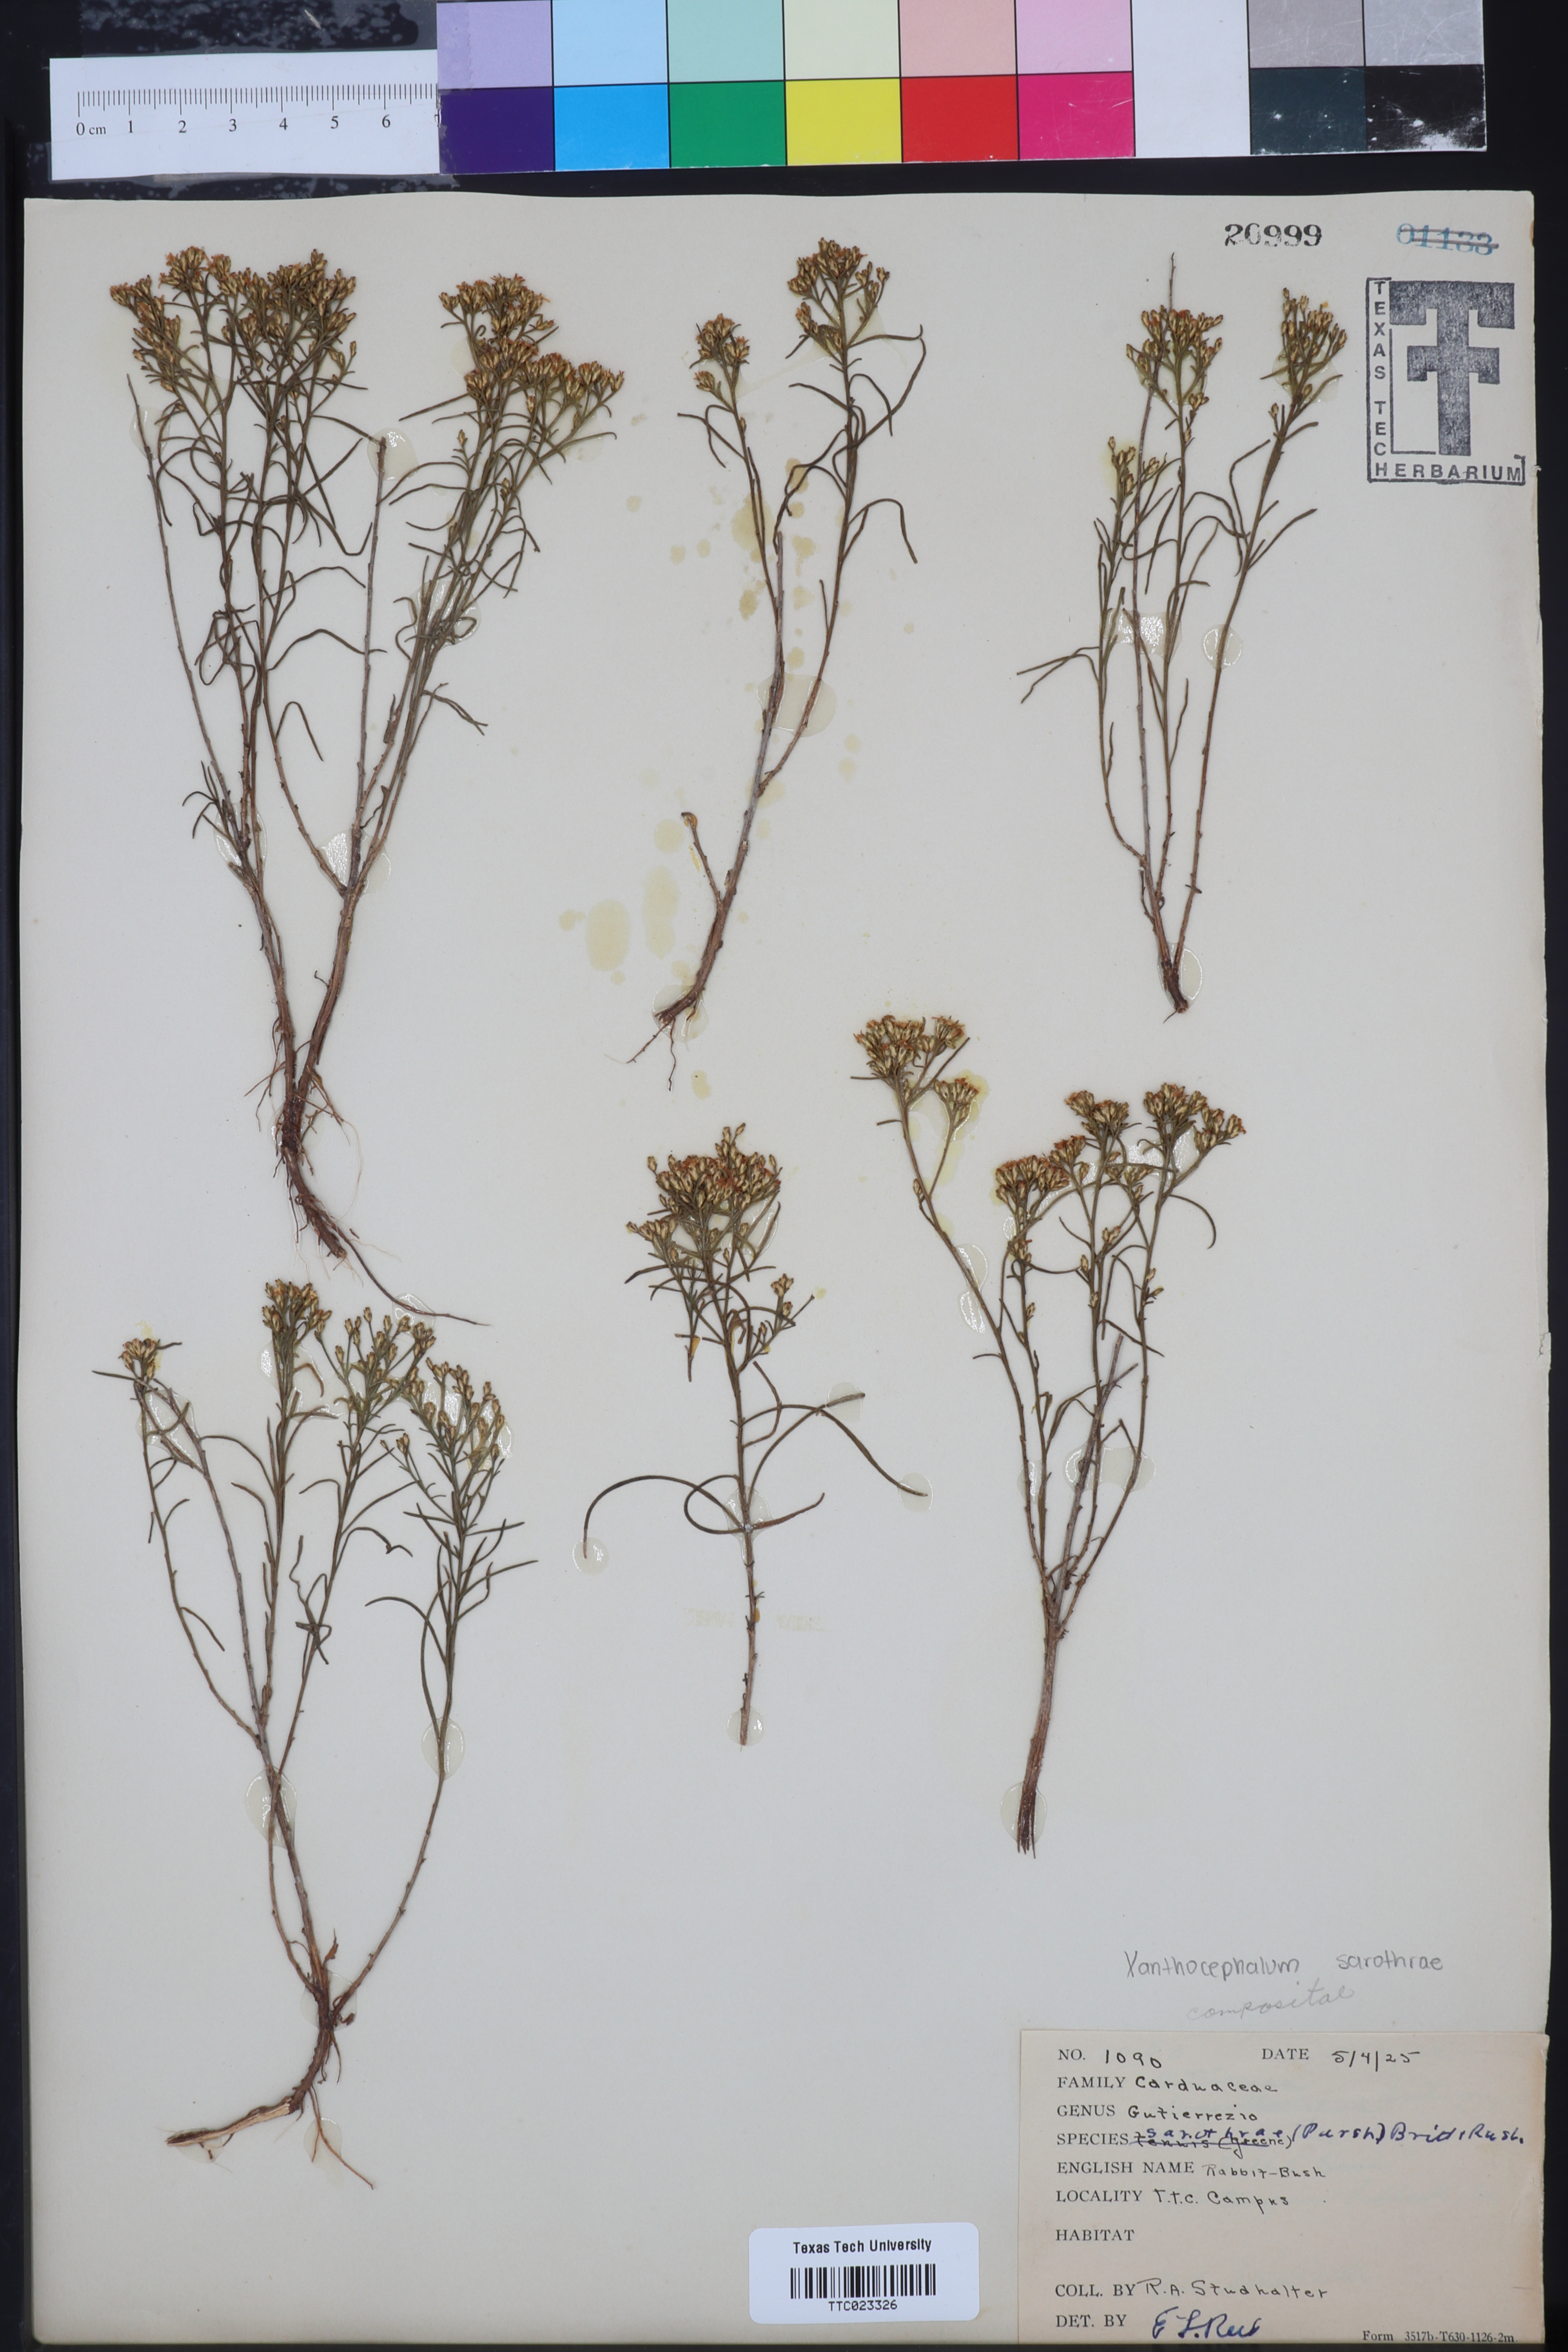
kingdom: Plantae
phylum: Tracheophyta
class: Magnoliopsida
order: Asterales
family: Asteraceae
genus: Gutierrezia
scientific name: Gutierrezia sarothrae
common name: Broom snakeweed
